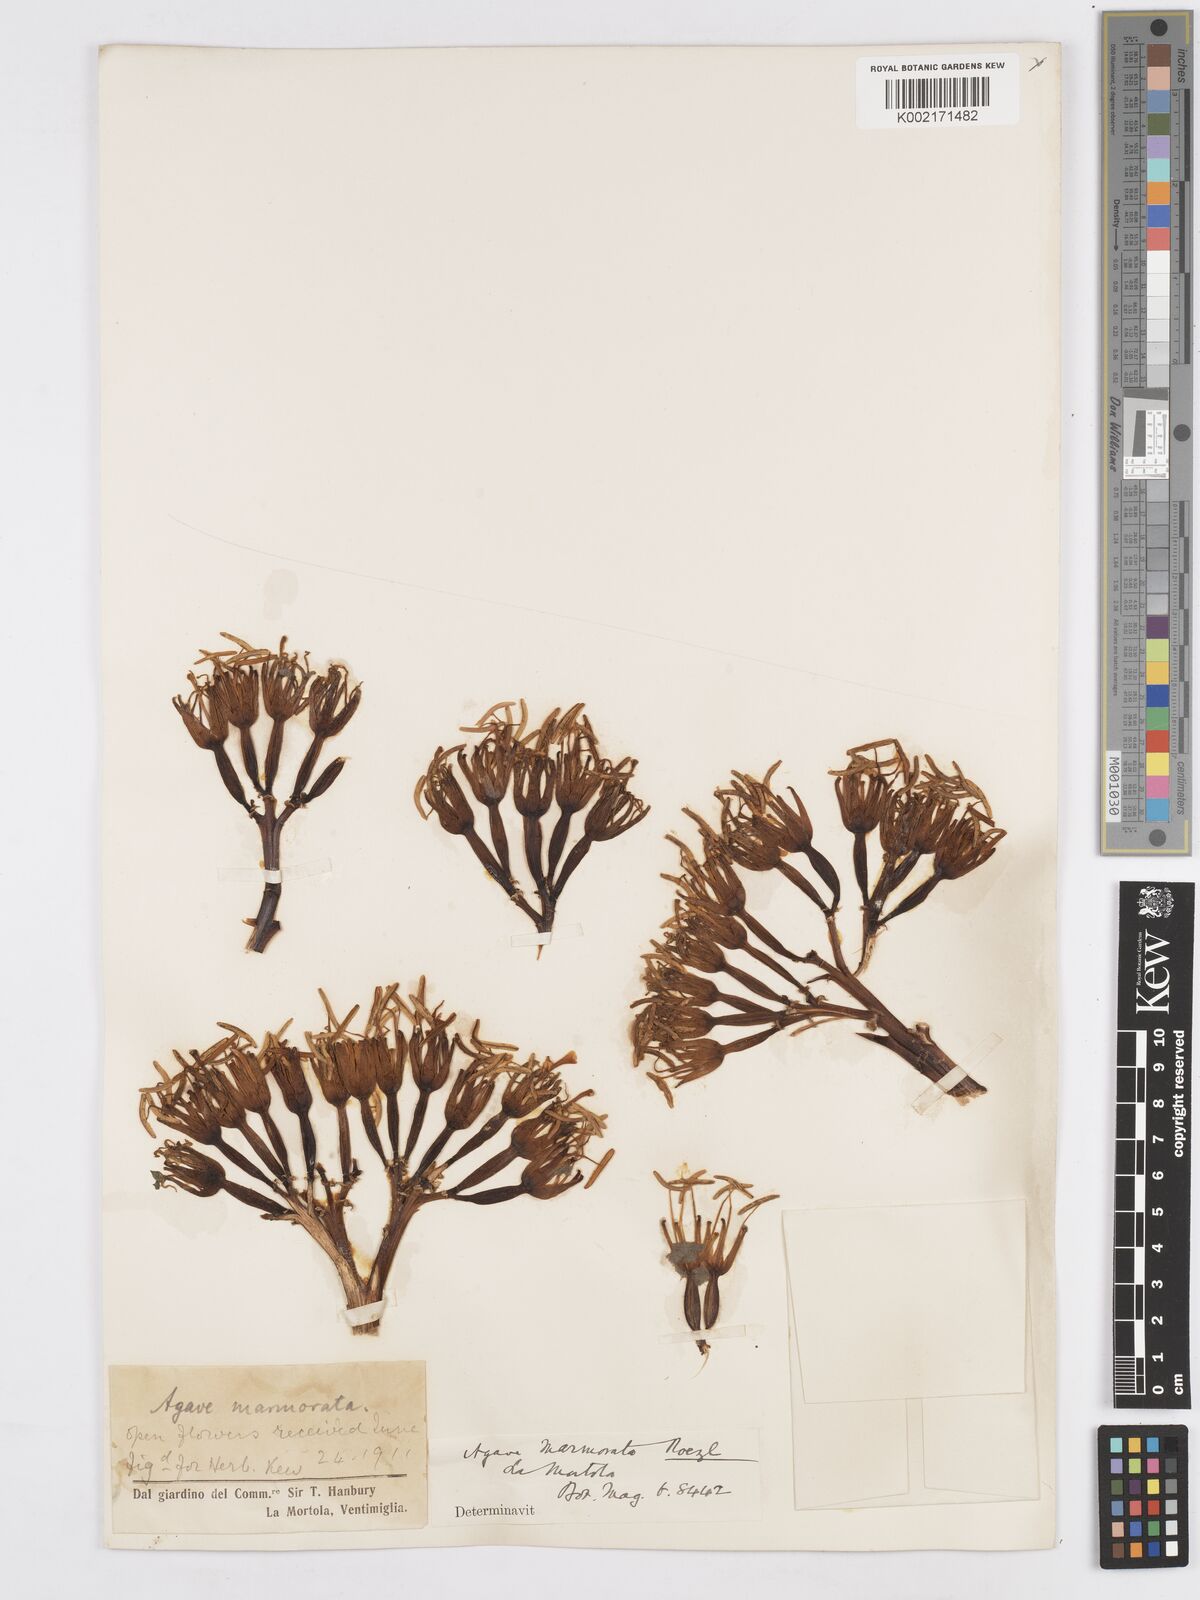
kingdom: Plantae
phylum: Tracheophyta
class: Liliopsida
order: Asparagales
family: Asparagaceae
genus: Agave
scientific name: Agave marmorata
